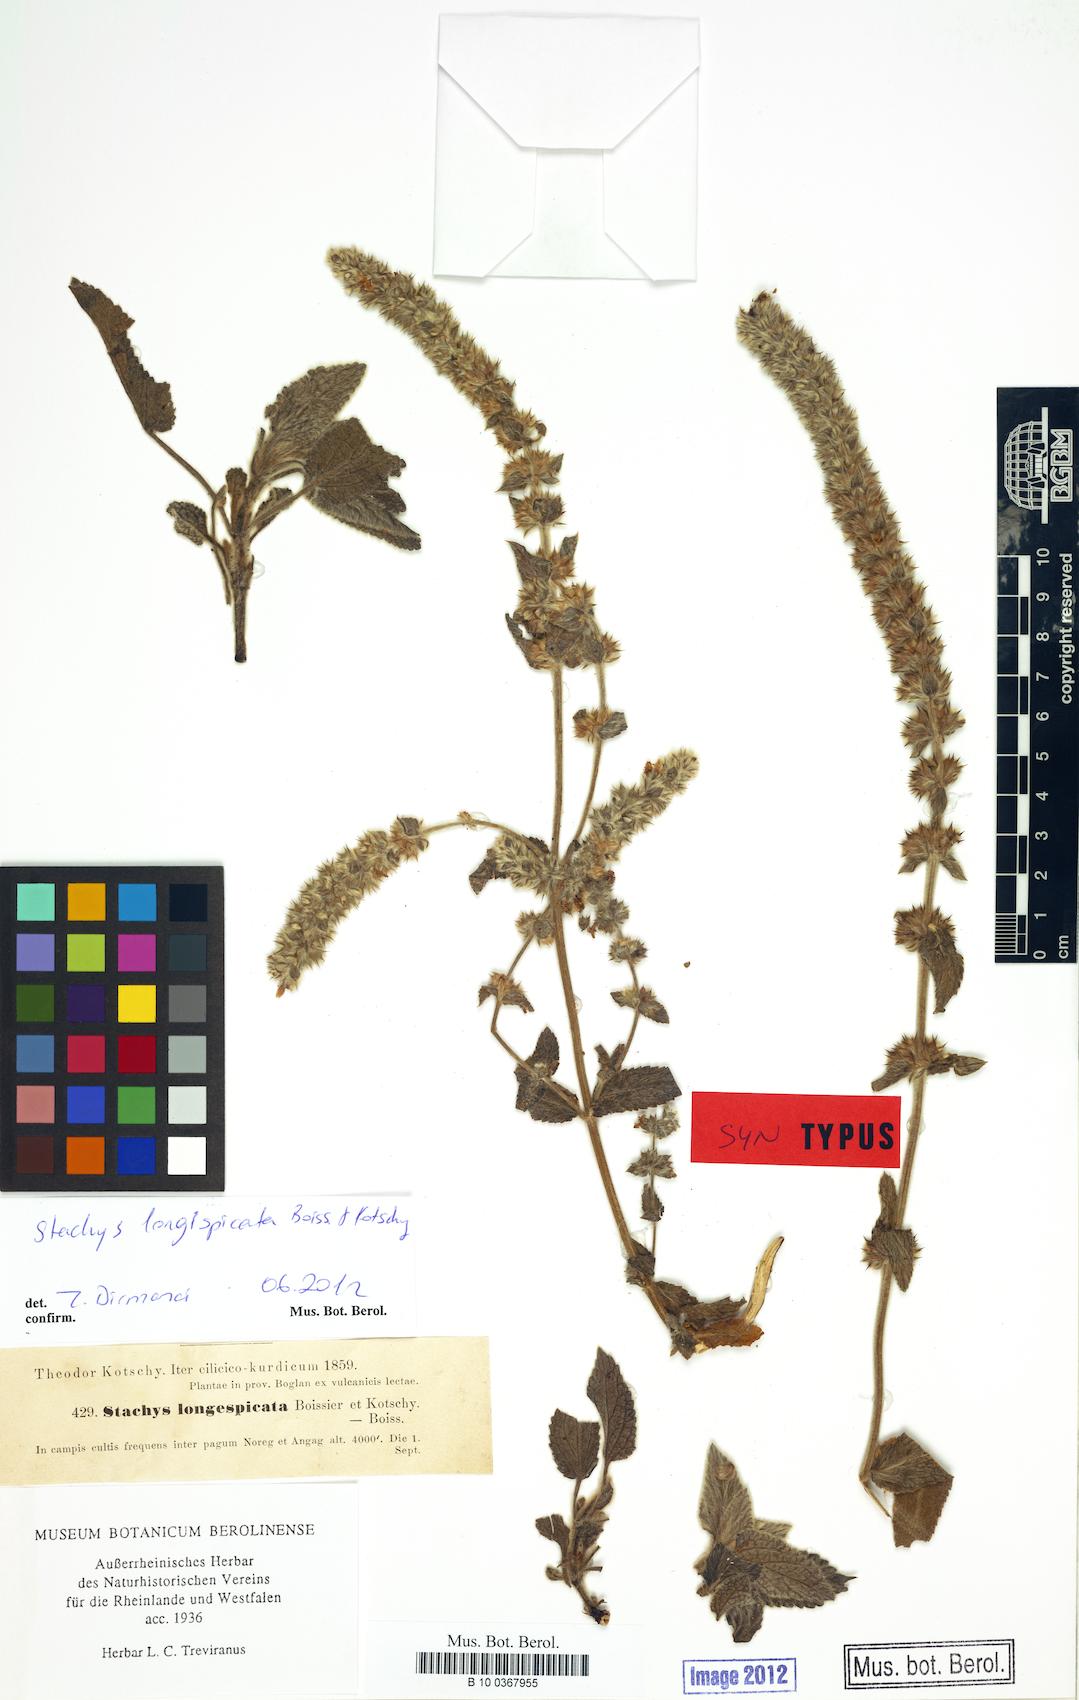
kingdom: Plantae
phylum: Tracheophyta
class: Magnoliopsida
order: Lamiales
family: Lamiaceae
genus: Stachys
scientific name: Stachys longispicata
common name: Longspike hedgenettle
